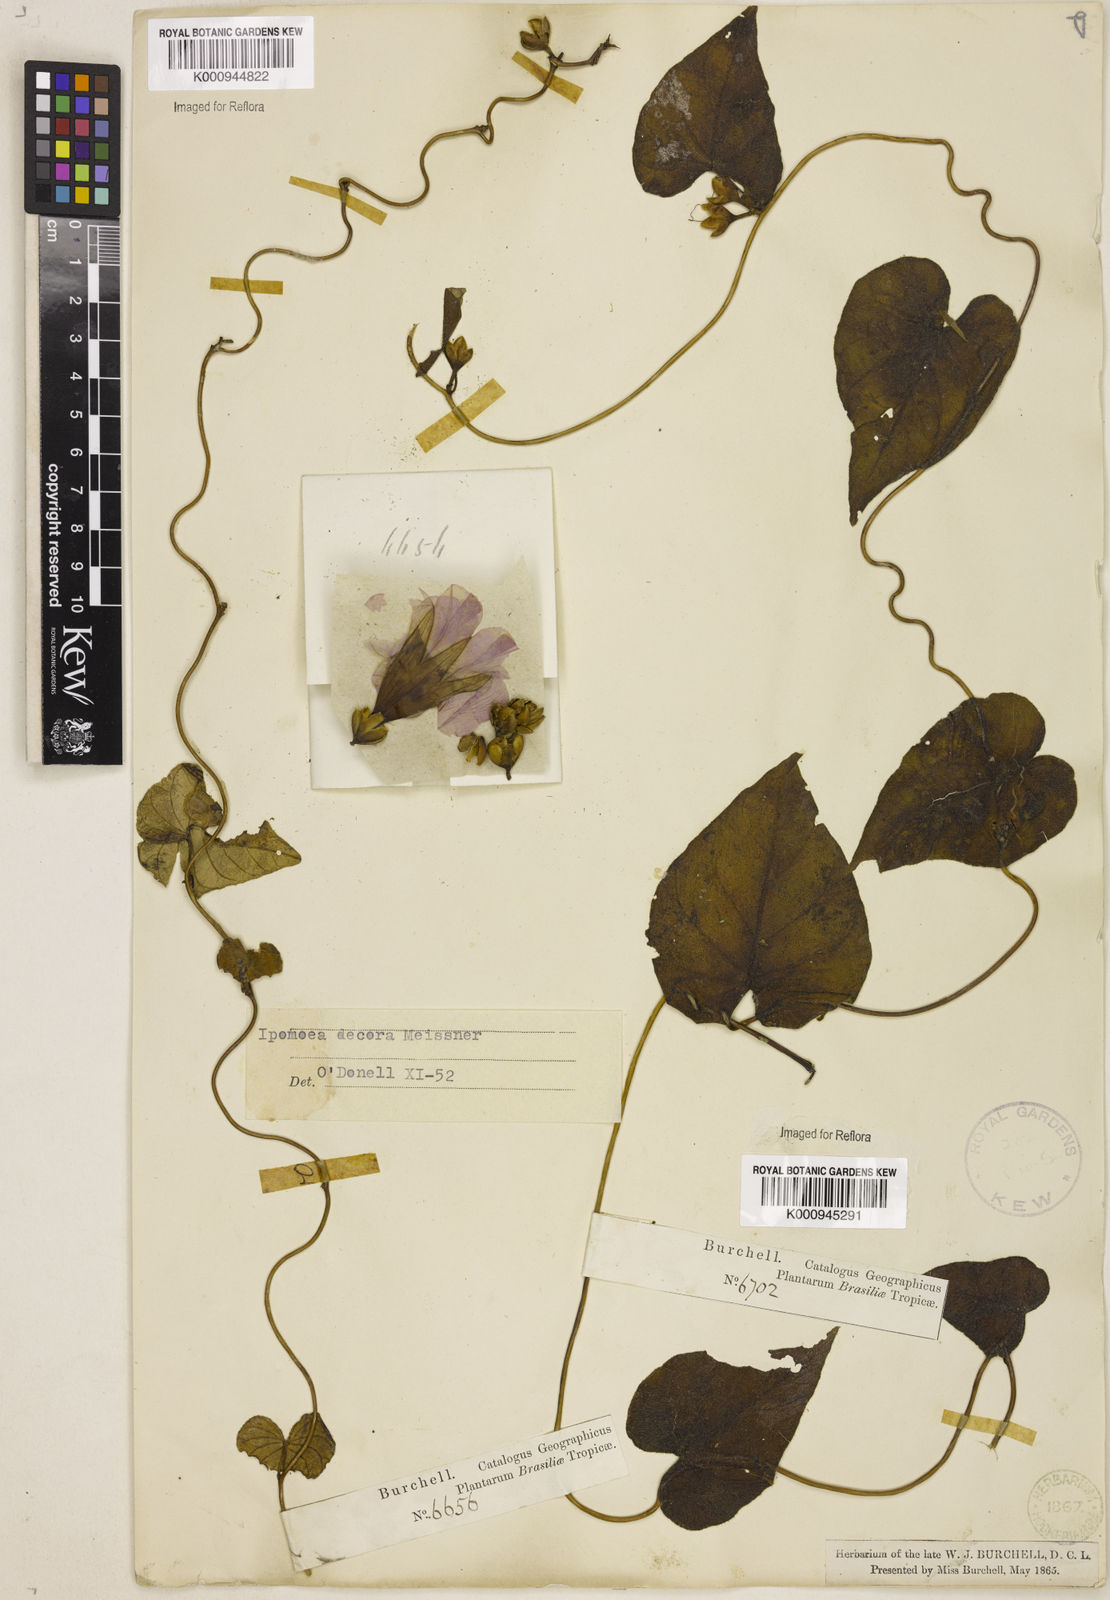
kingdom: Plantae
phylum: Tracheophyta
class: Magnoliopsida
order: Solanales
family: Convolvulaceae
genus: Ipomoea
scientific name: Ipomoea goyazensis
